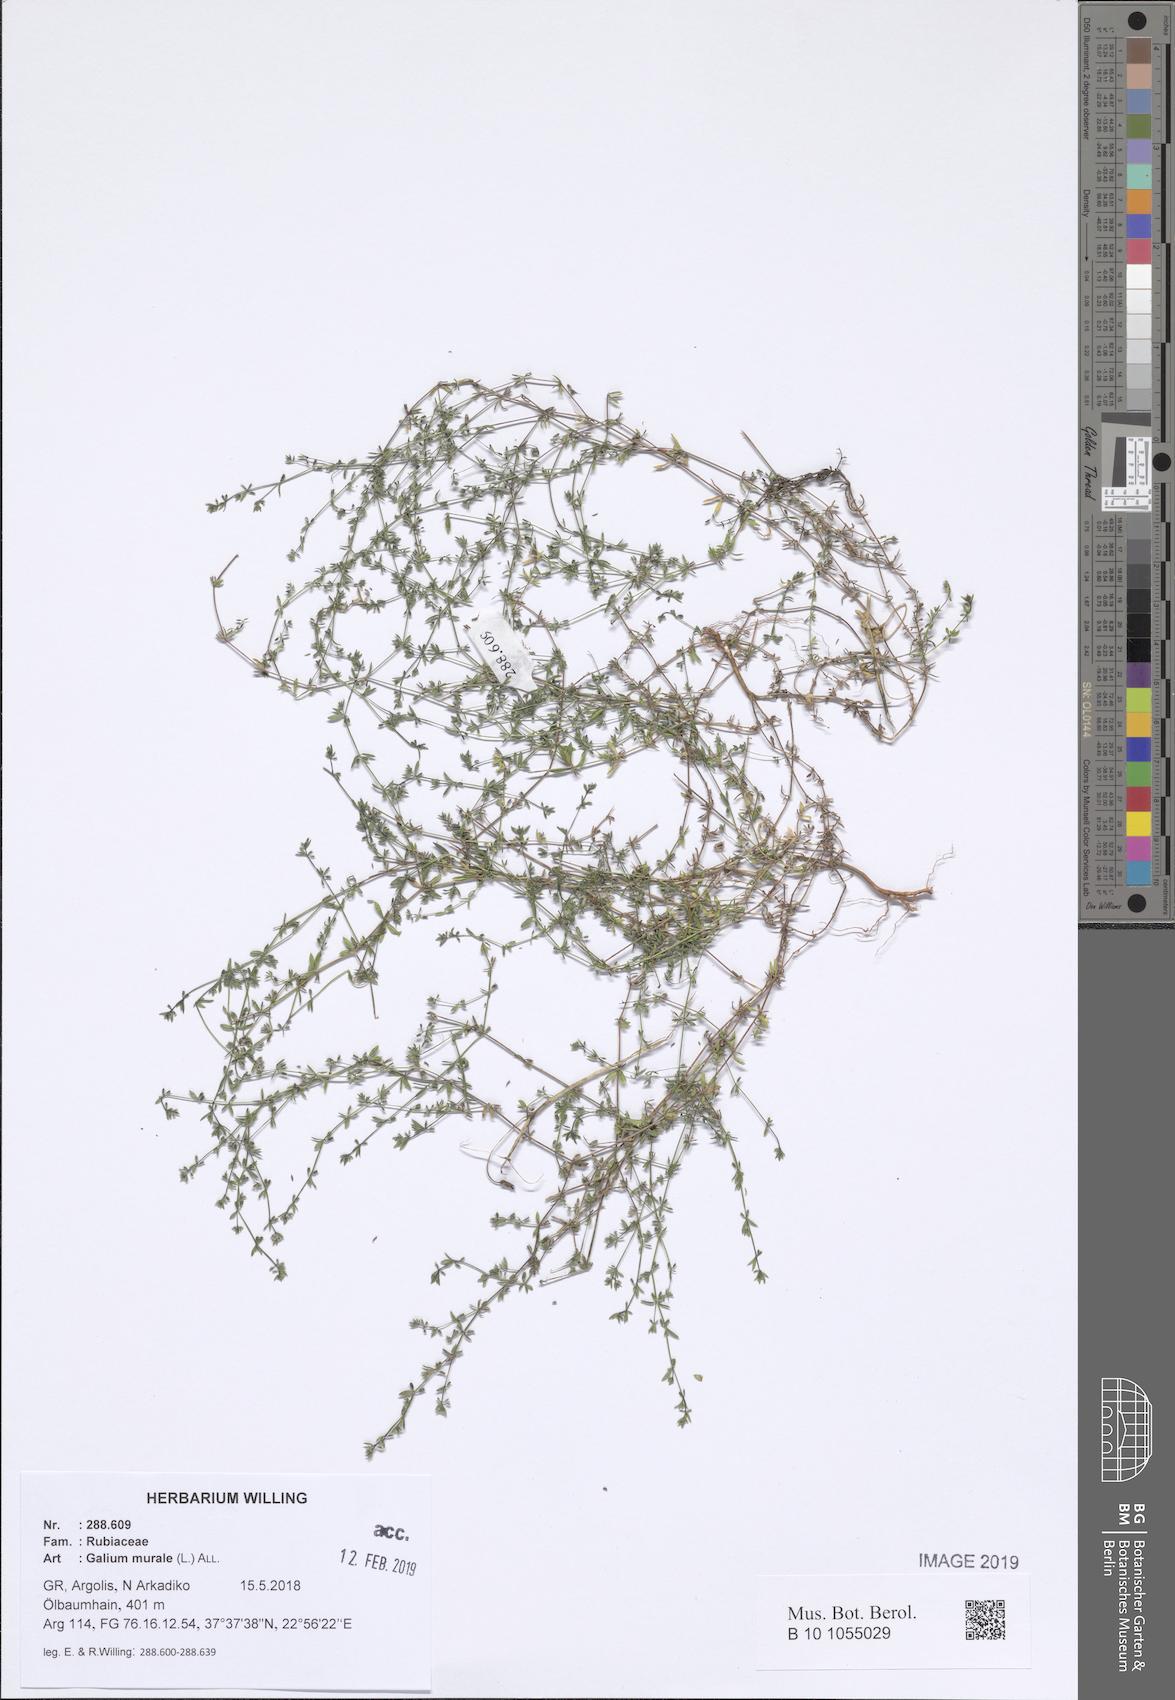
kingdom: Plantae
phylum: Tracheophyta
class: Magnoliopsida
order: Gentianales
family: Rubiaceae
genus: Galium
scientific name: Galium murale
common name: Yellow wall bedstraw
